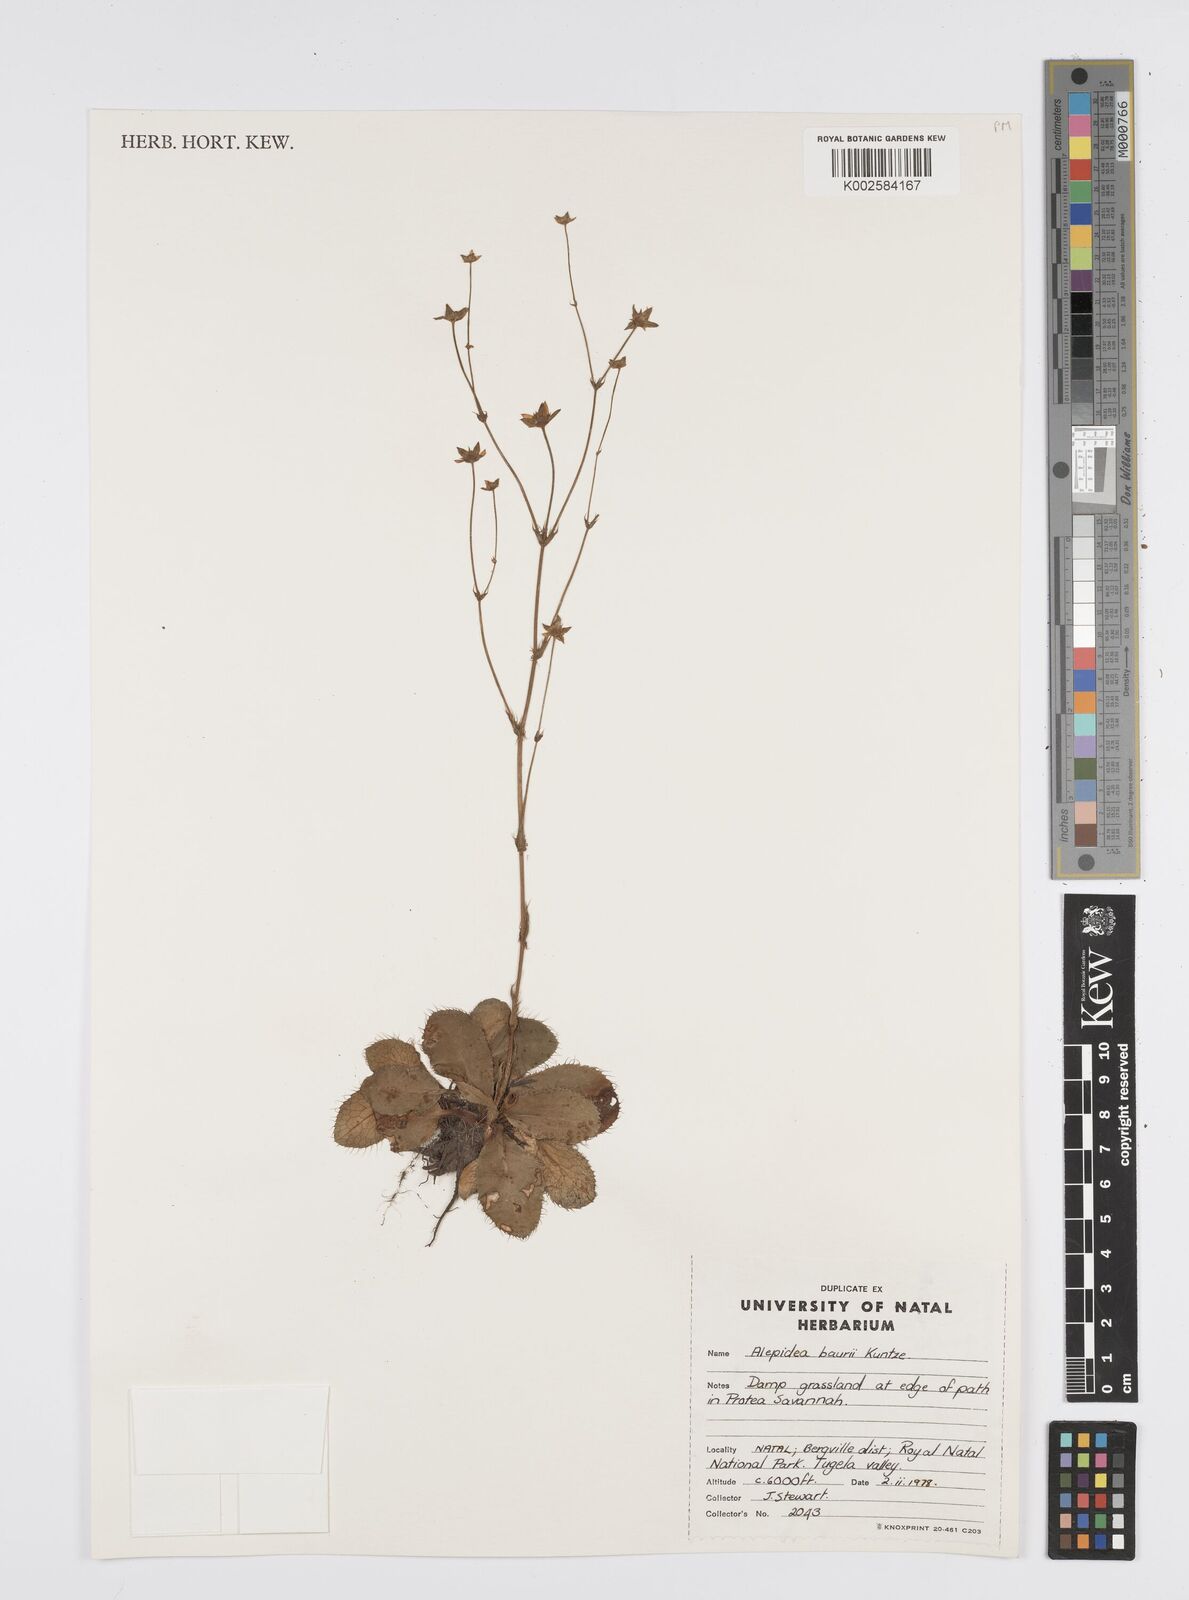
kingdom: Plantae
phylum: Tracheophyta
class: Magnoliopsida
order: Apiales
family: Apiaceae
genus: Alepidea
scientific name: Alepidea natalensis
